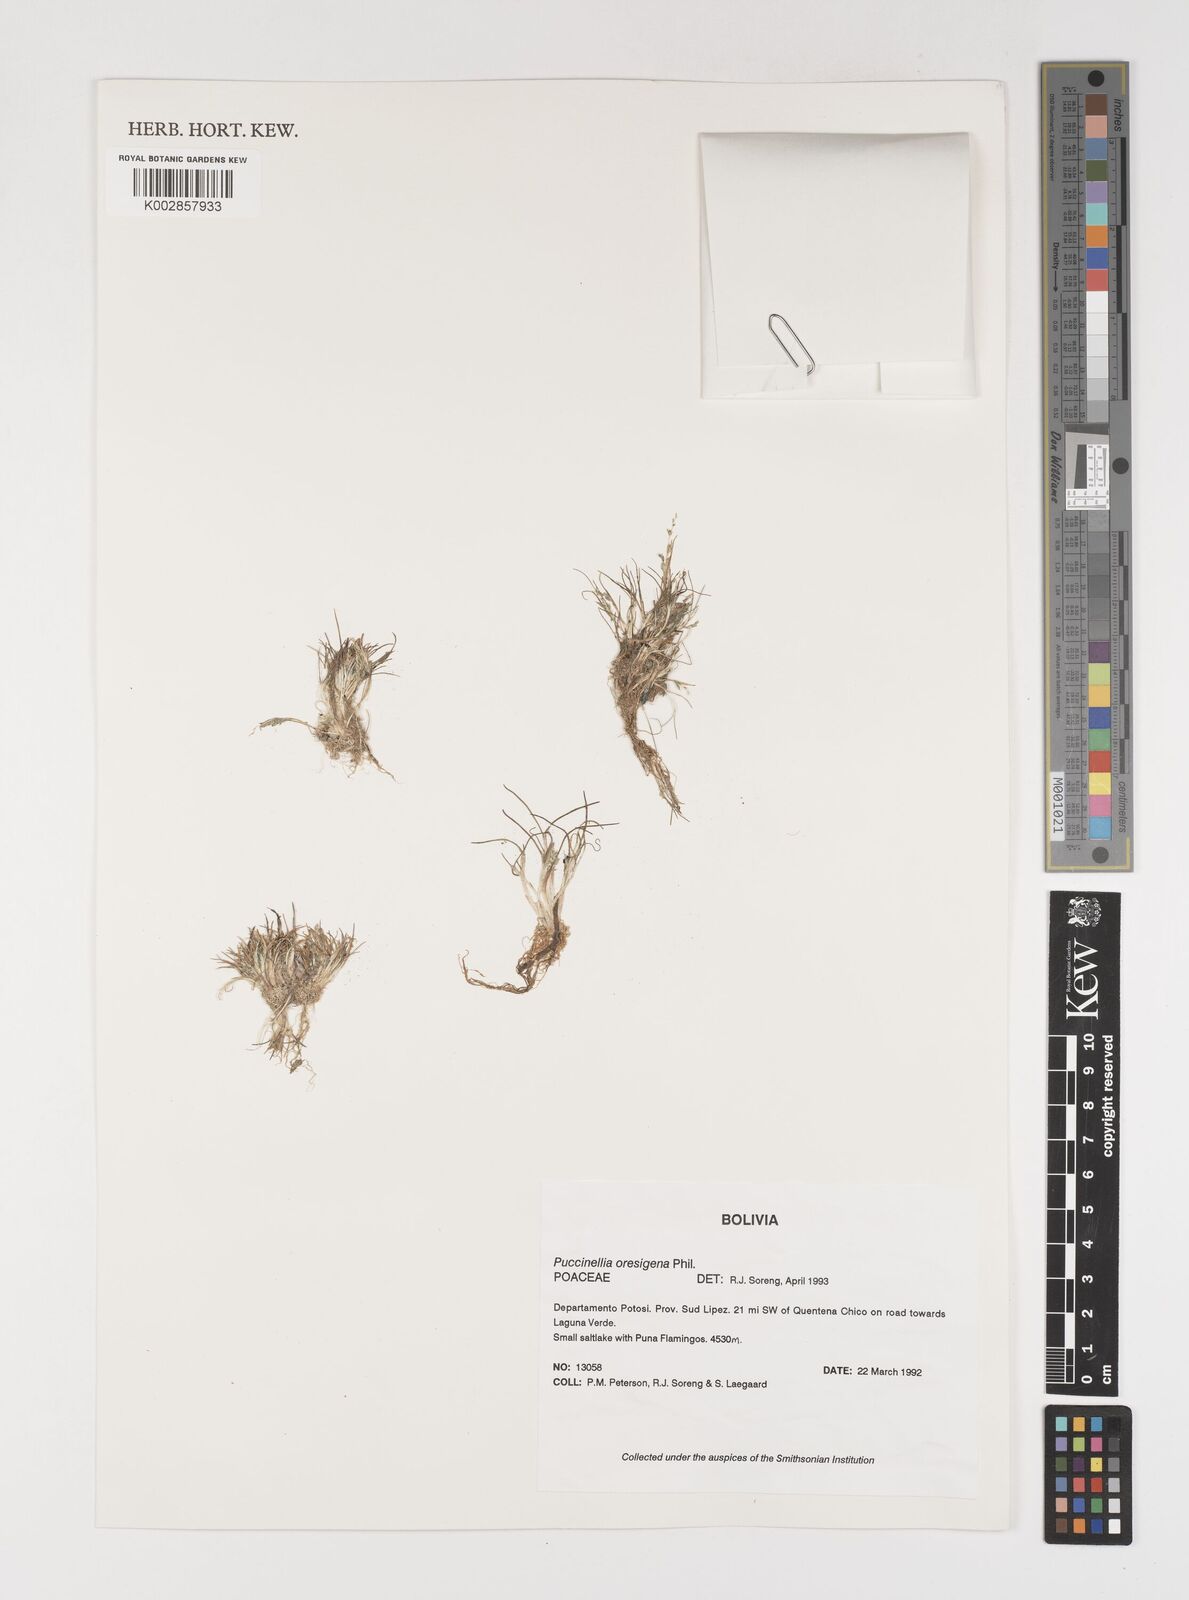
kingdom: Plantae
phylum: Tracheophyta
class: Liliopsida
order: Poales
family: Poaceae
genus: Puccinellia
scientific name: Puccinellia frigida
